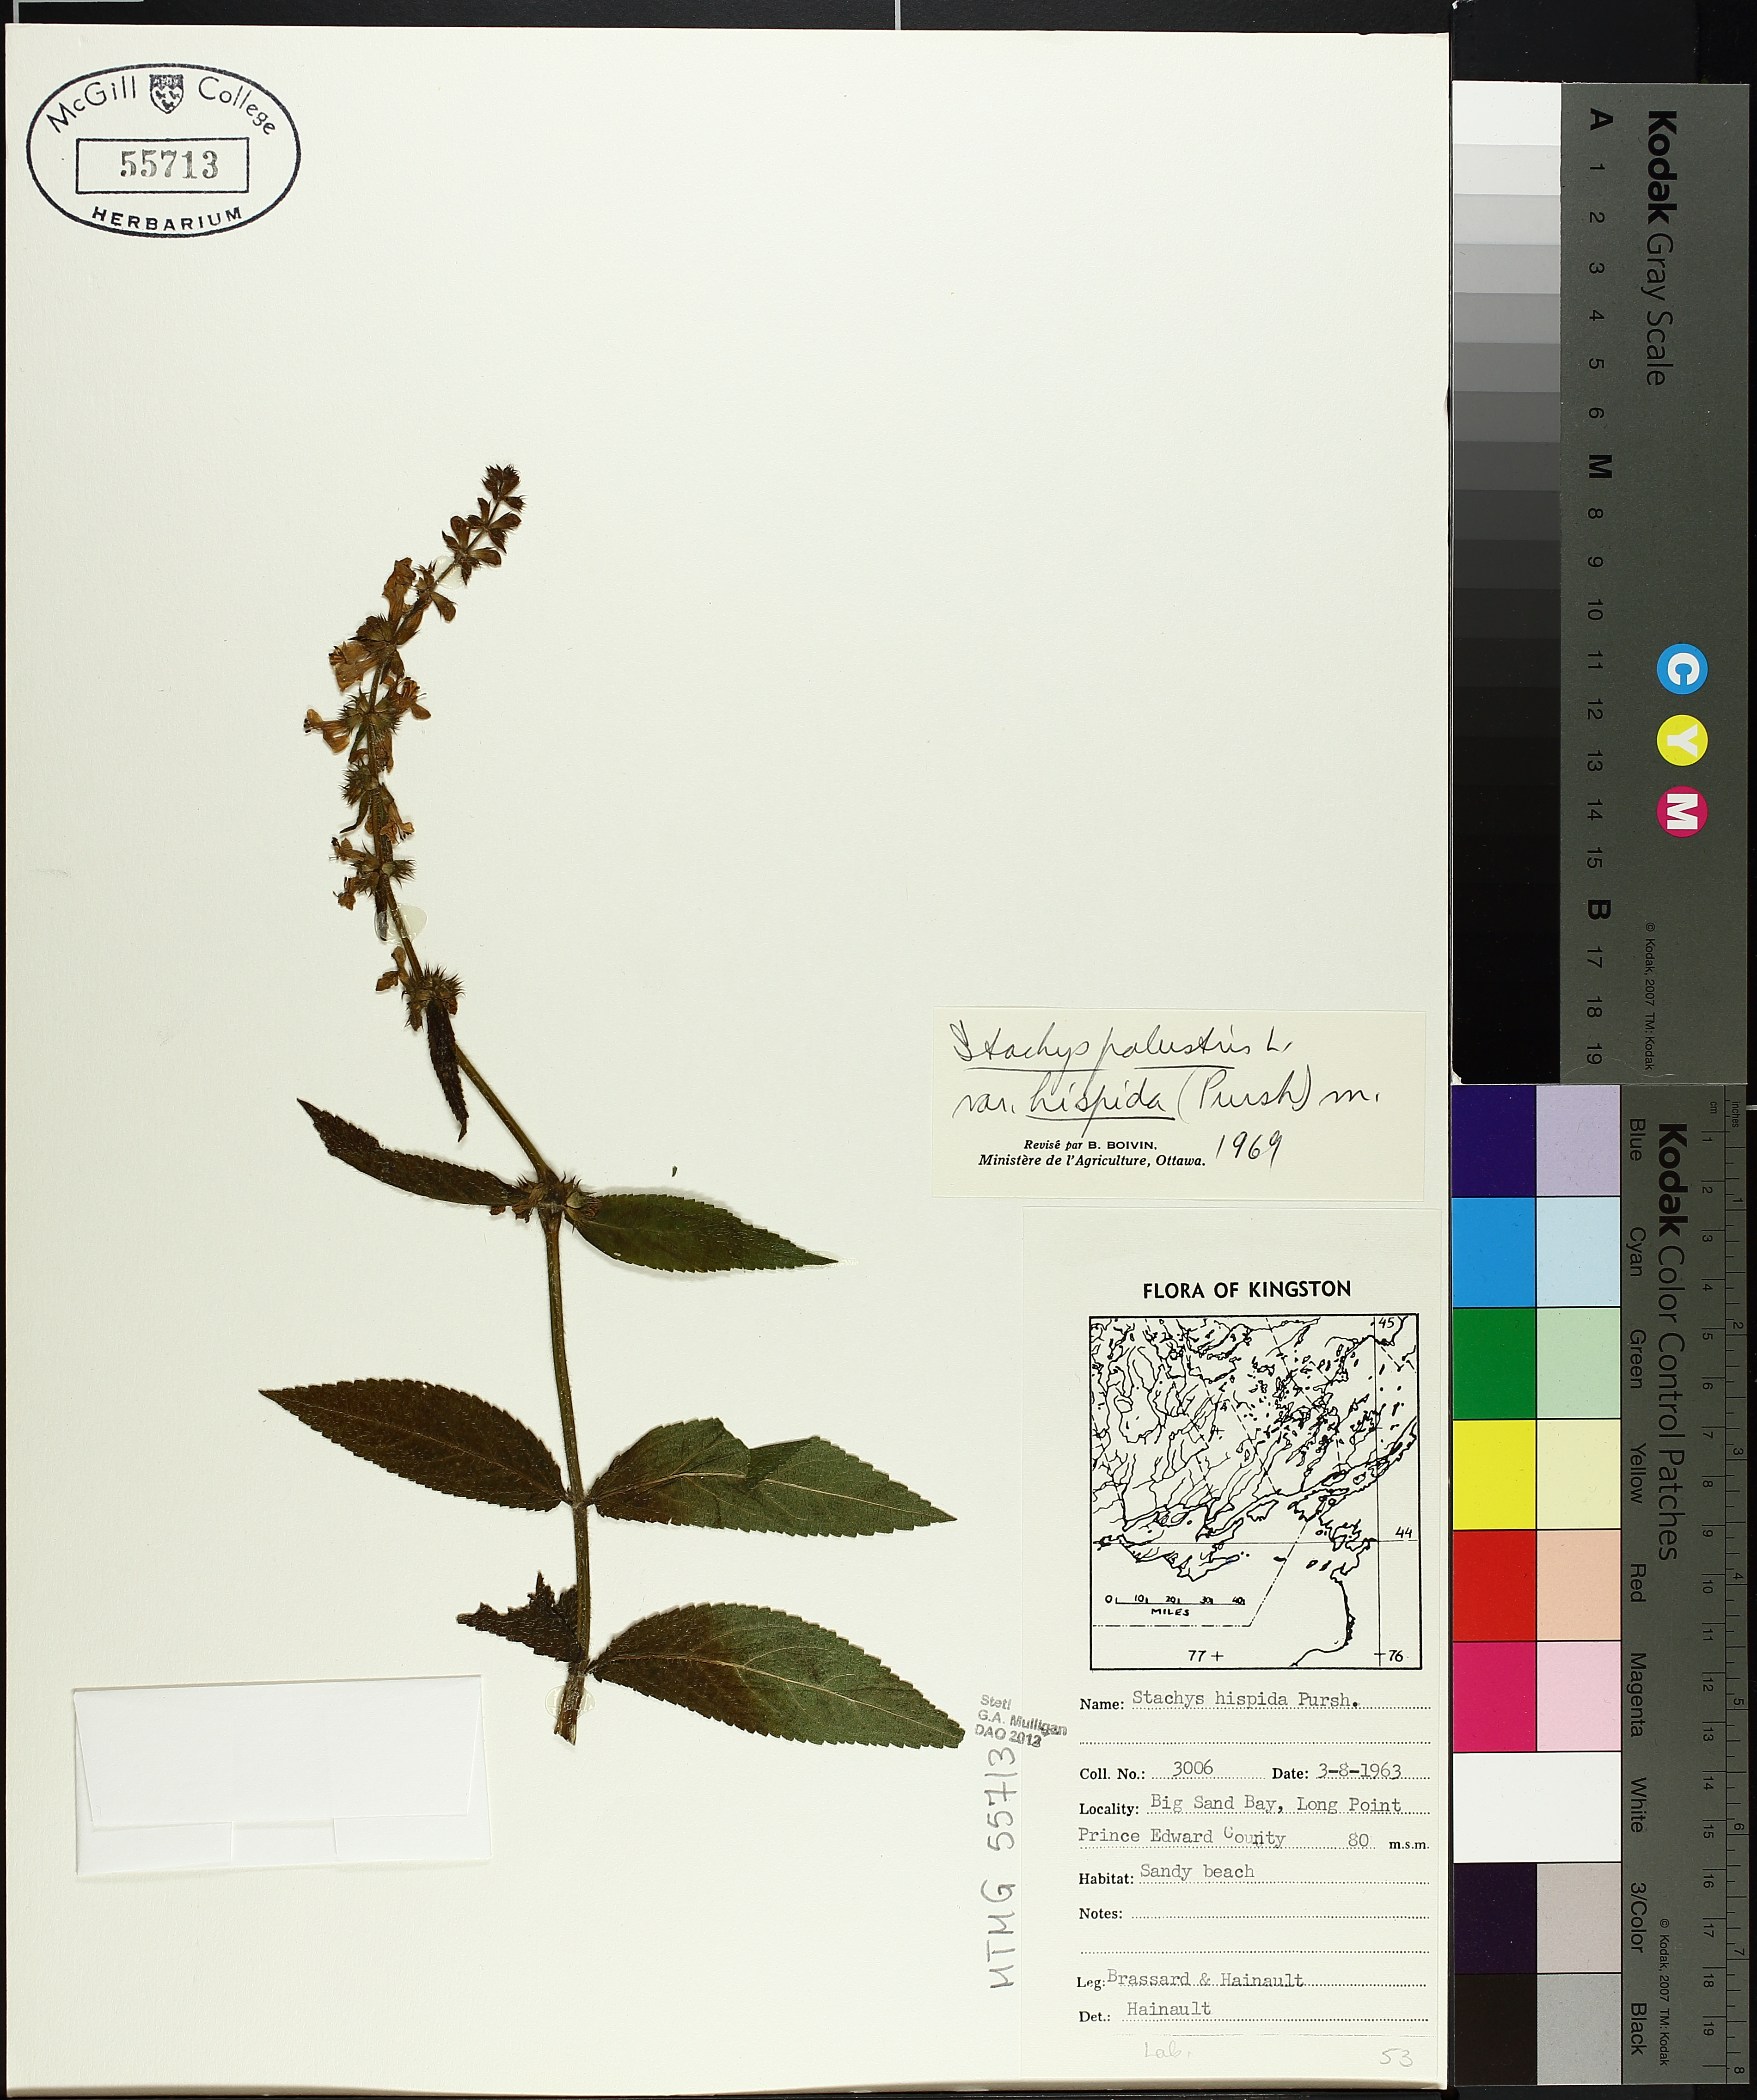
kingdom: Plantae
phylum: Tracheophyta
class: Magnoliopsida
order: Lamiales
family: Lamiaceae
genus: Stachys
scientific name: Stachys riederi
